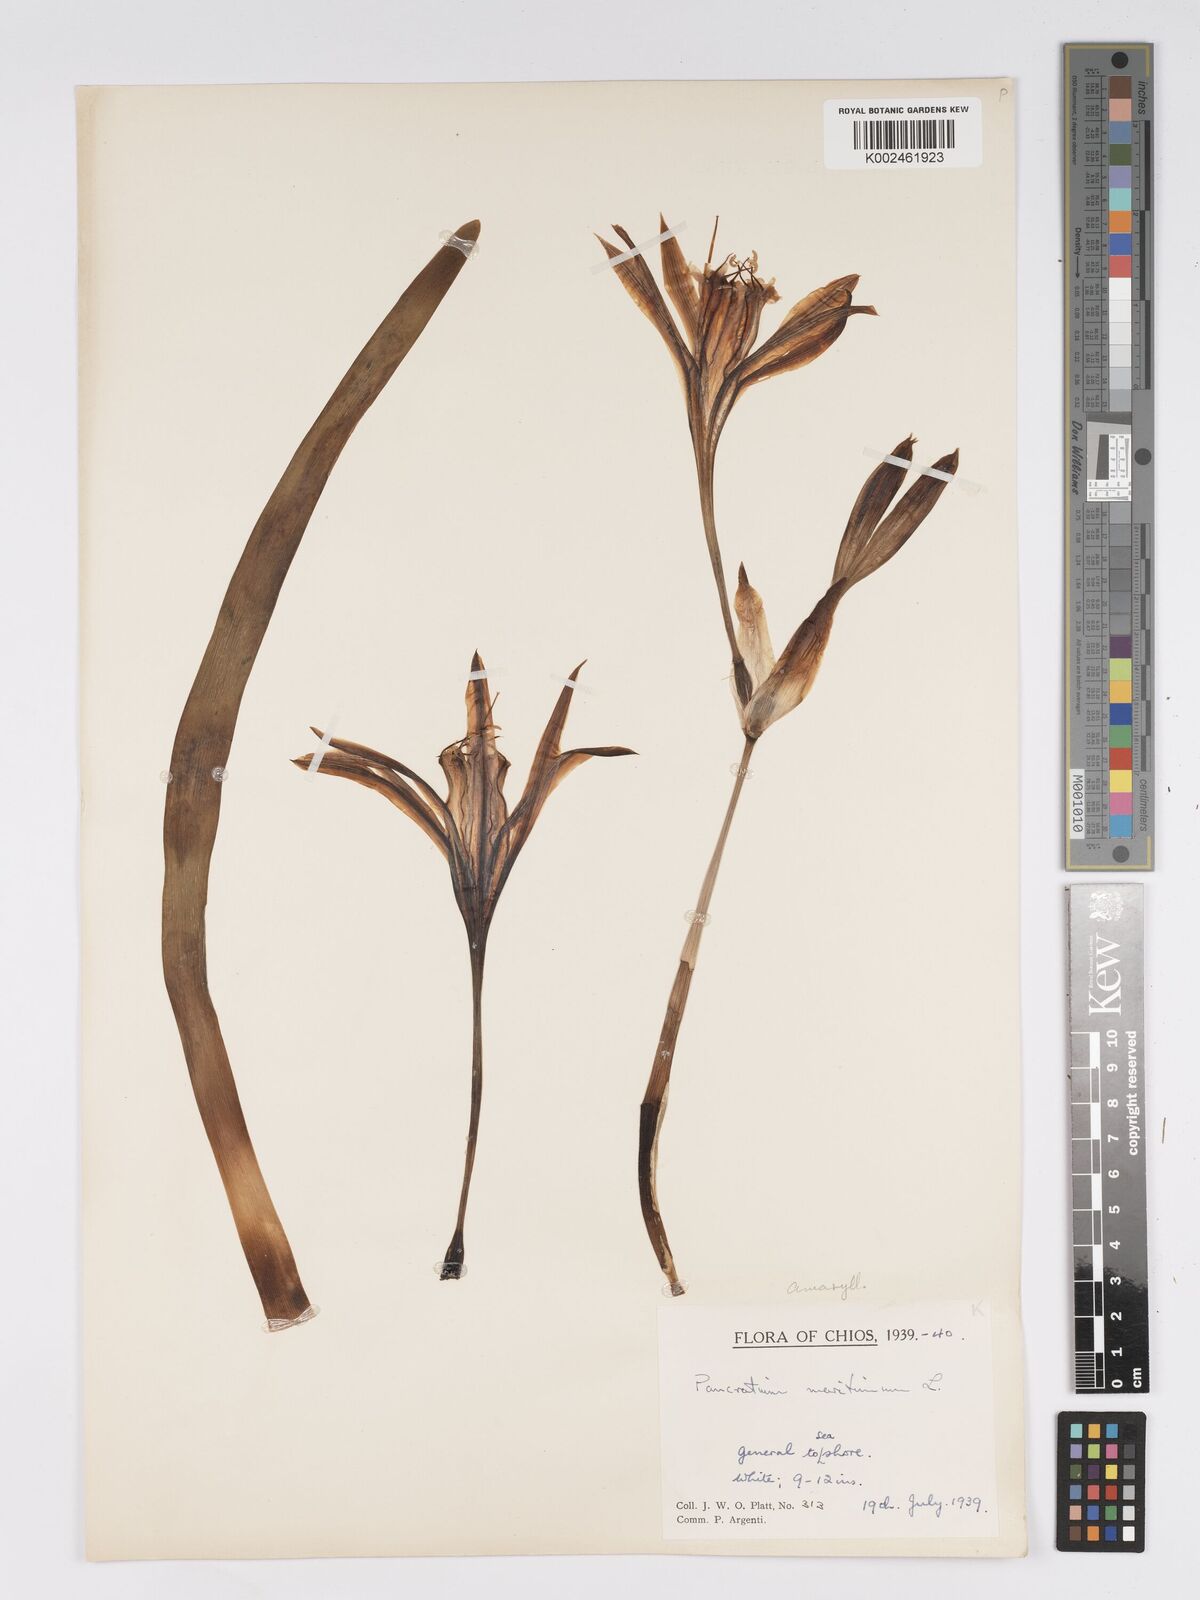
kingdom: Plantae
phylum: Tracheophyta
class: Liliopsida
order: Asparagales
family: Amaryllidaceae
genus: Pancratium
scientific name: Pancratium maritimum
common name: Sea-daffodil
